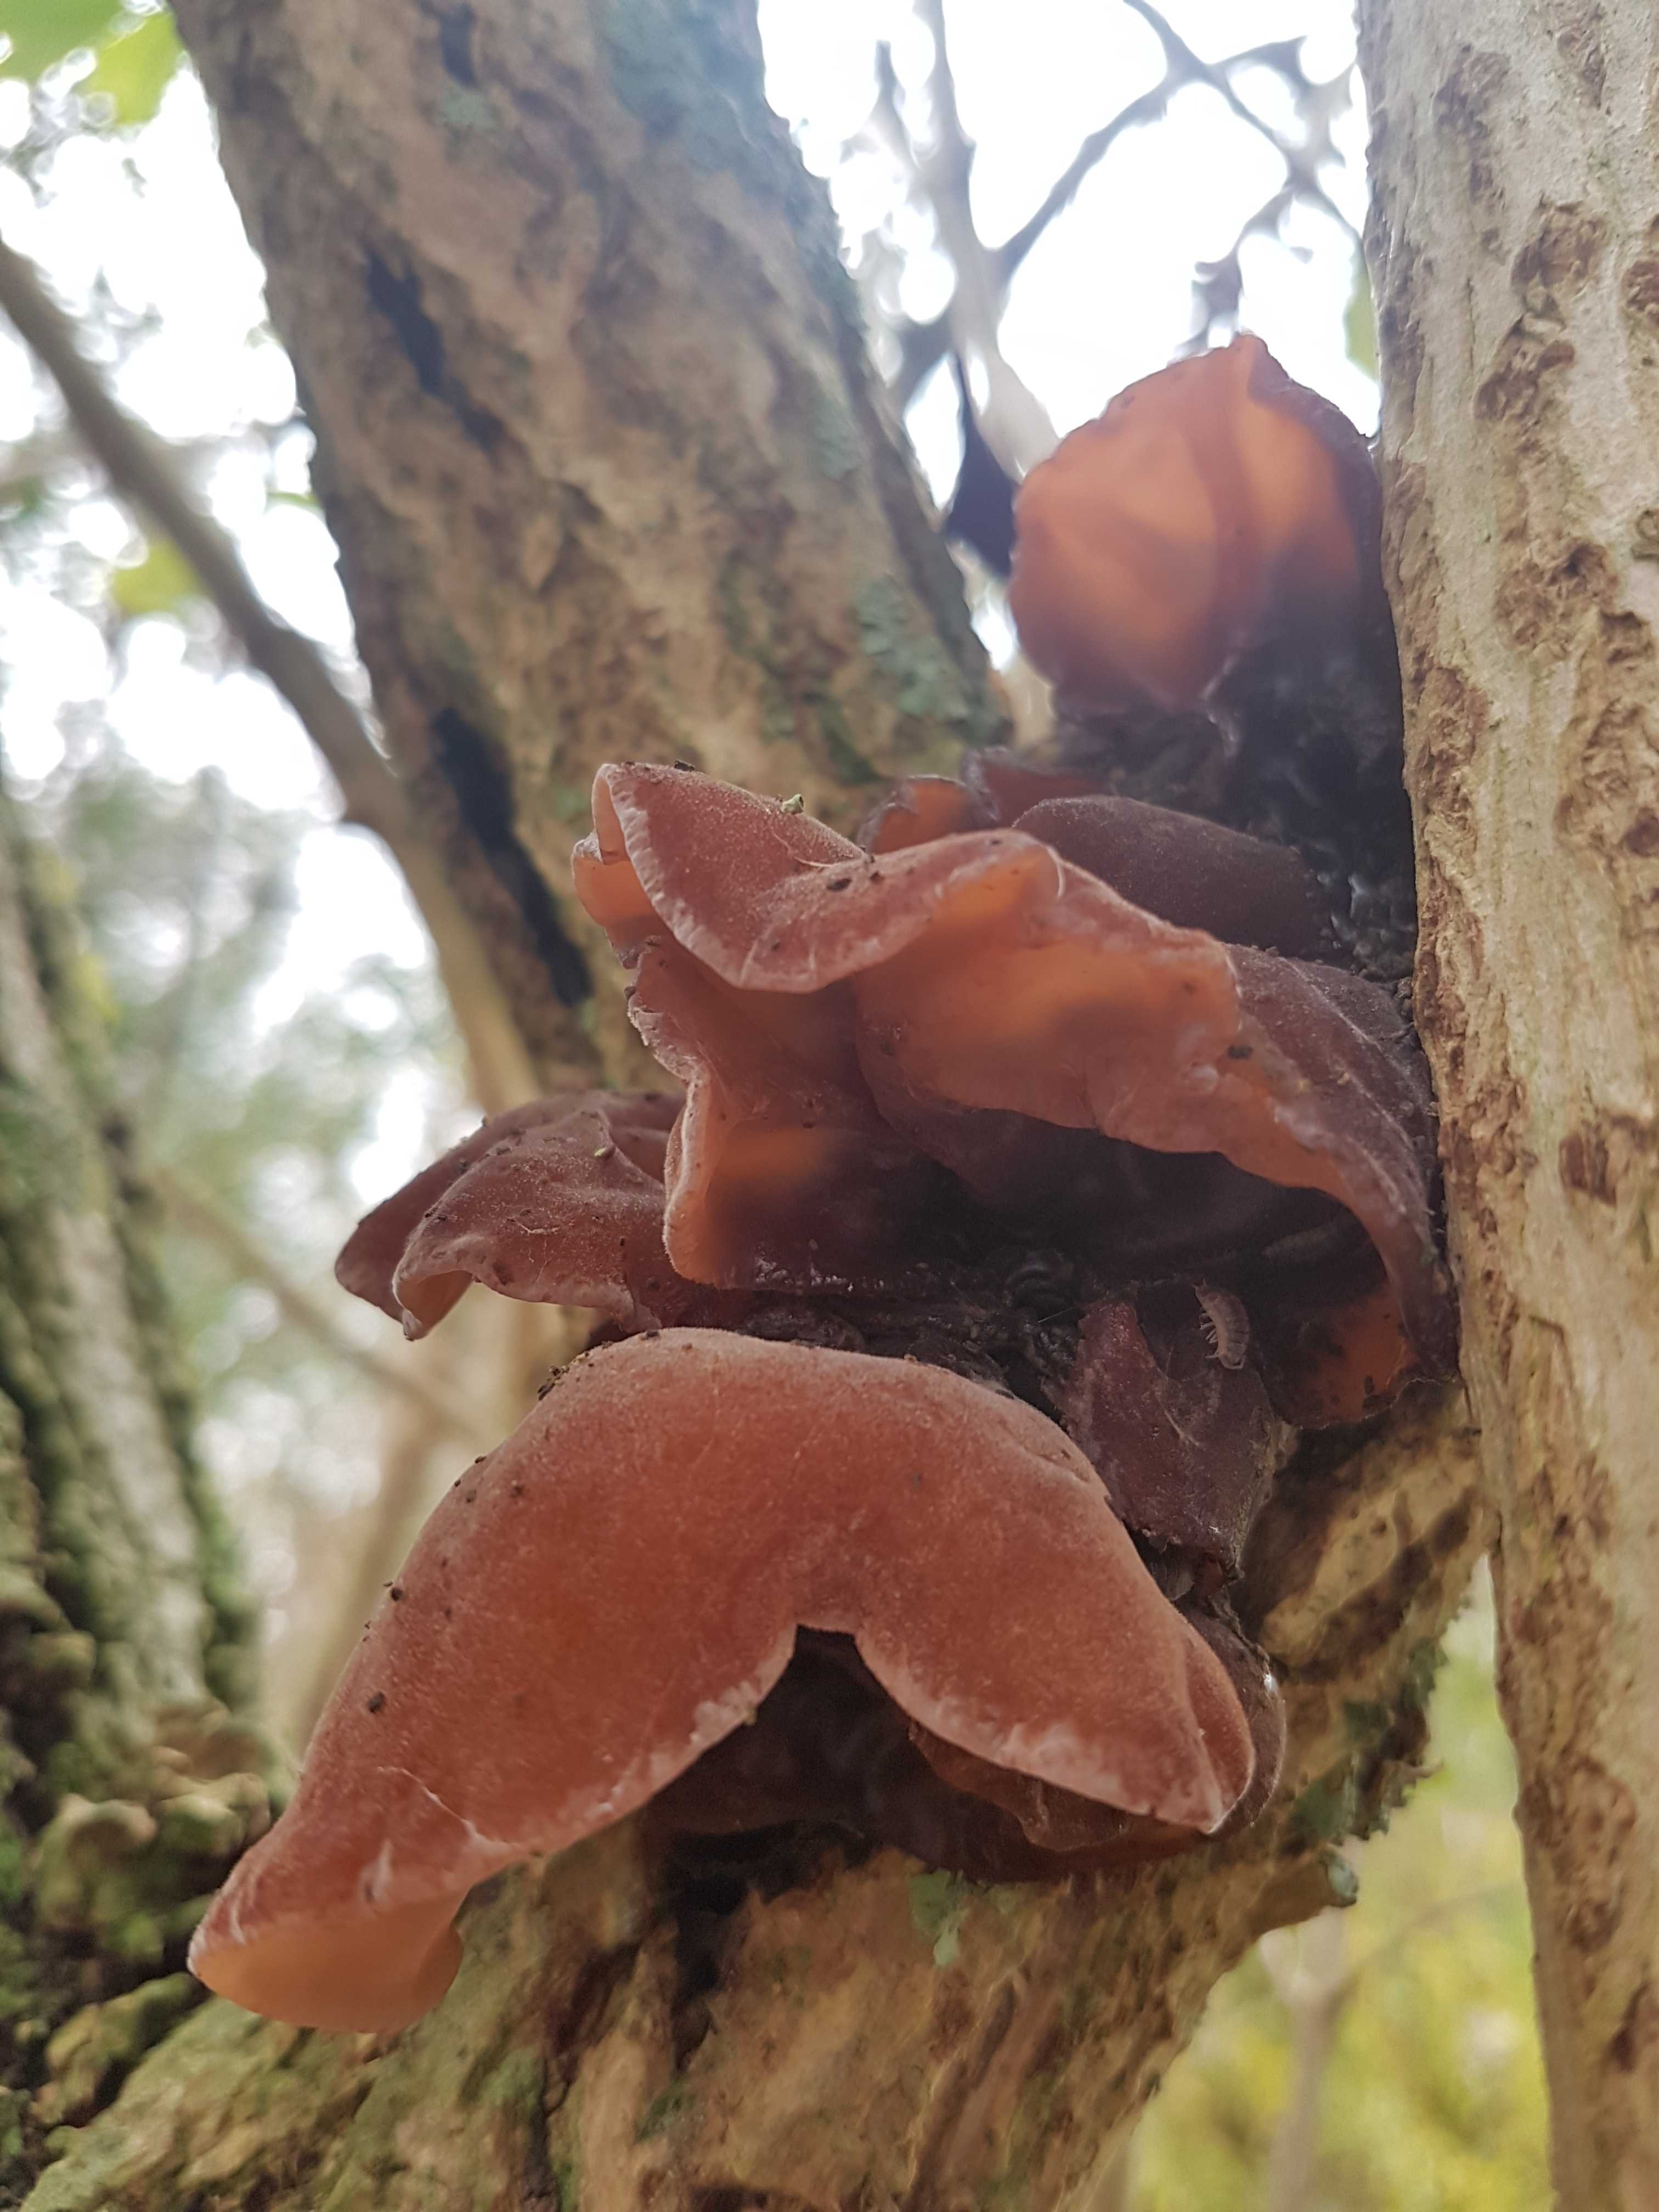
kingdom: Fungi
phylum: Basidiomycota
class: Agaricomycetes
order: Auriculariales
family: Auriculariaceae
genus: Auricularia
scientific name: Auricularia auricula-judae
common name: almindelig judasøre
